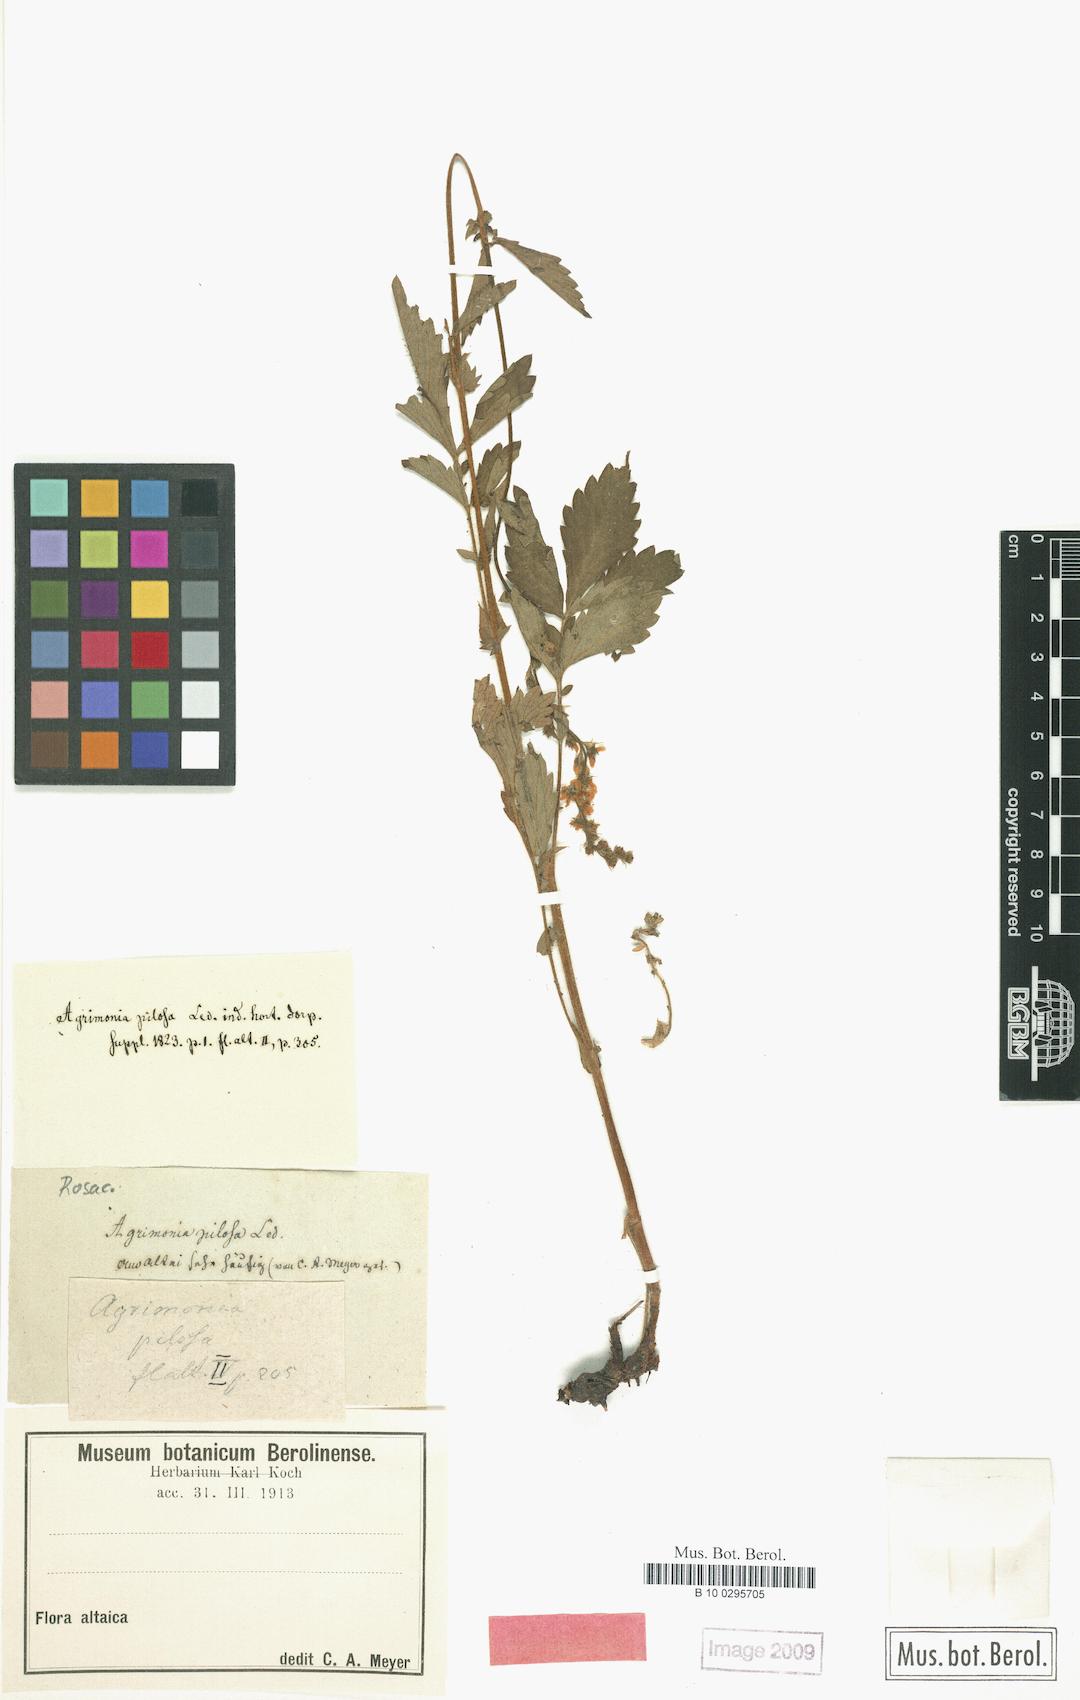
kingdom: Plantae
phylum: Tracheophyta
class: Magnoliopsida
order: Rosales
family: Rosaceae
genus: Agrimonia
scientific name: Agrimonia pilosa
